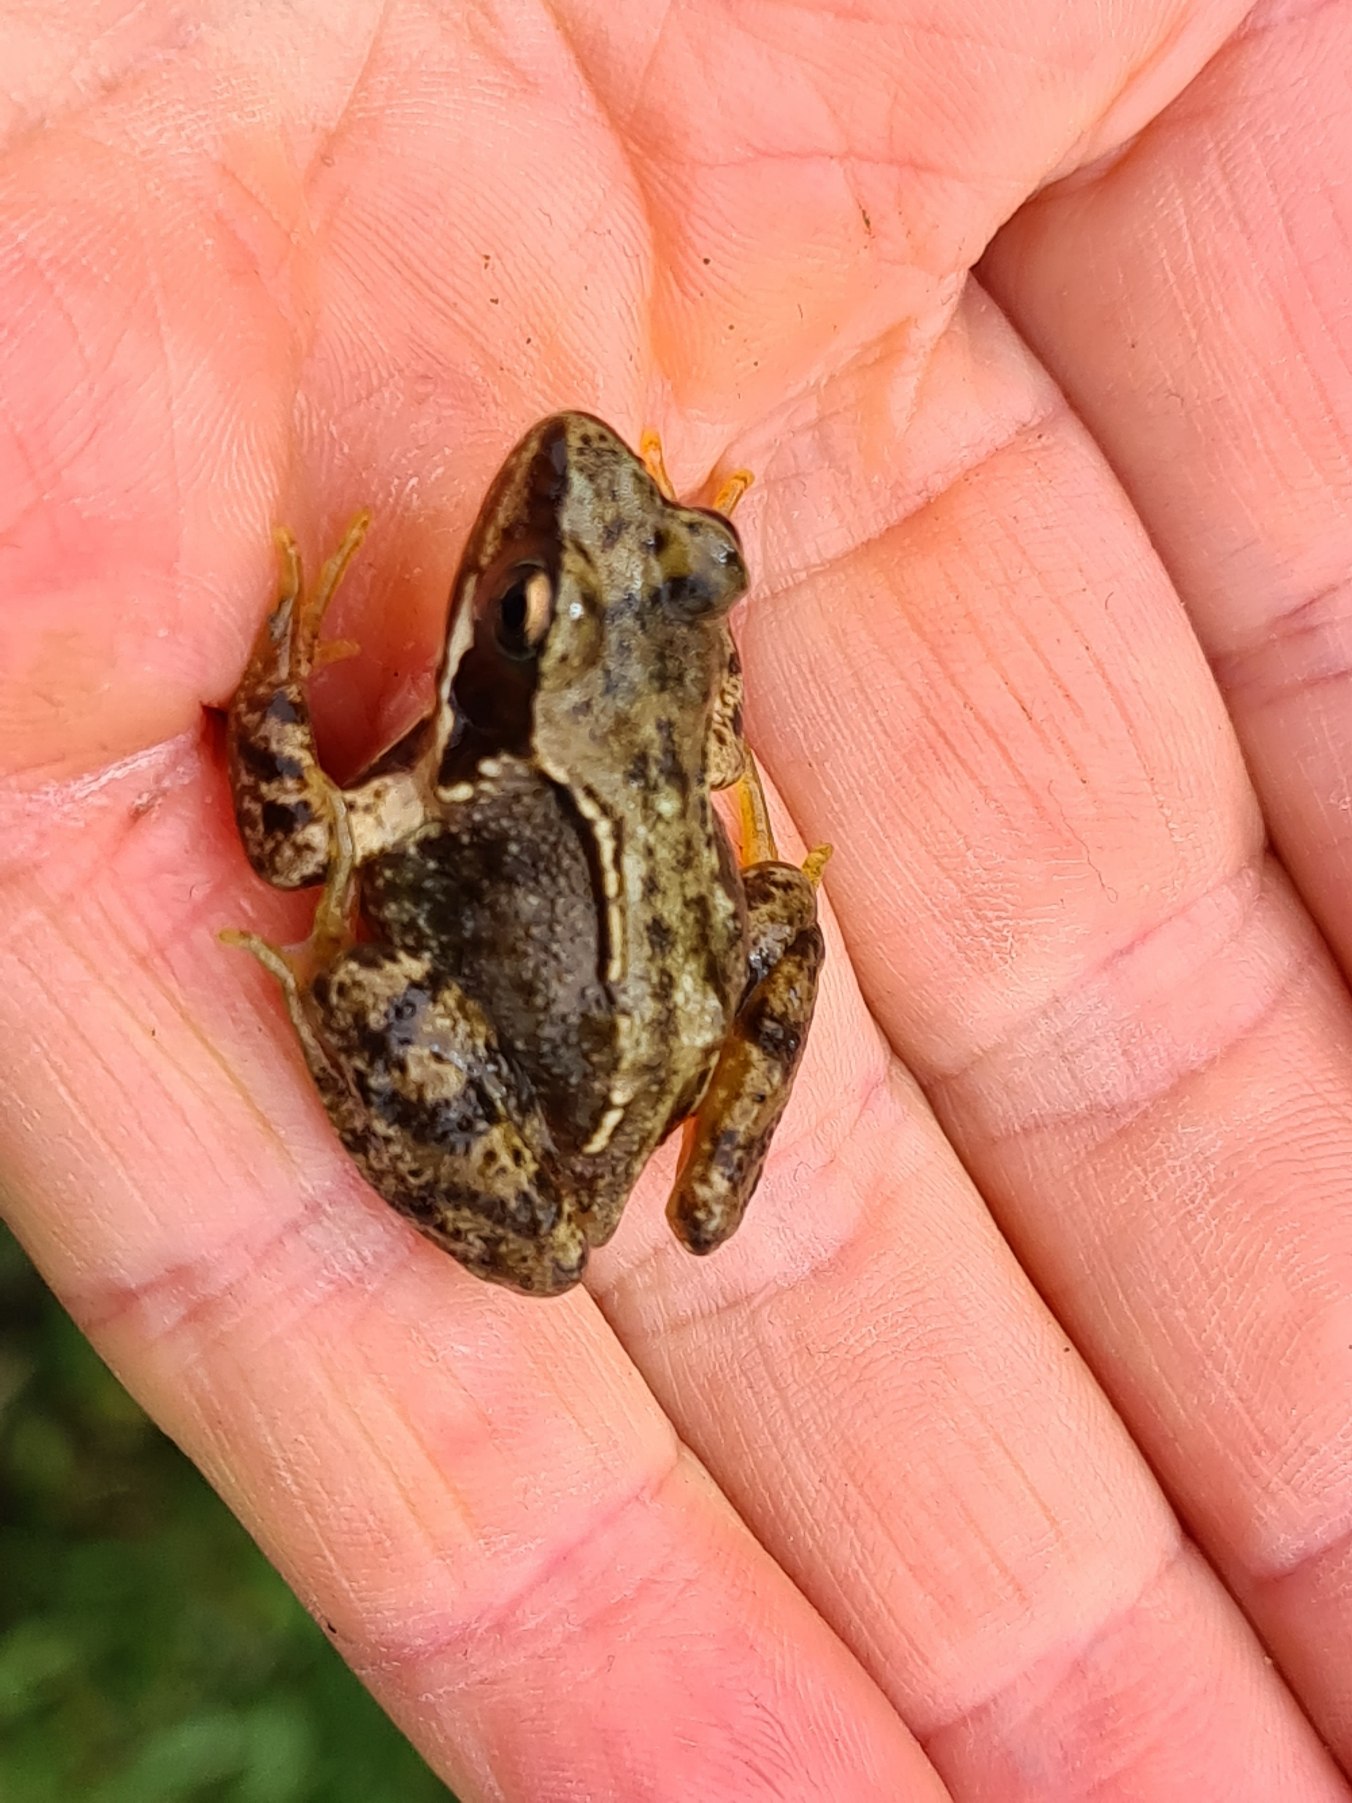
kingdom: Animalia
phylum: Chordata
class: Amphibia
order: Anura
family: Ranidae
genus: Rana
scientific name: Rana temporaria
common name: Butsnudet frø
